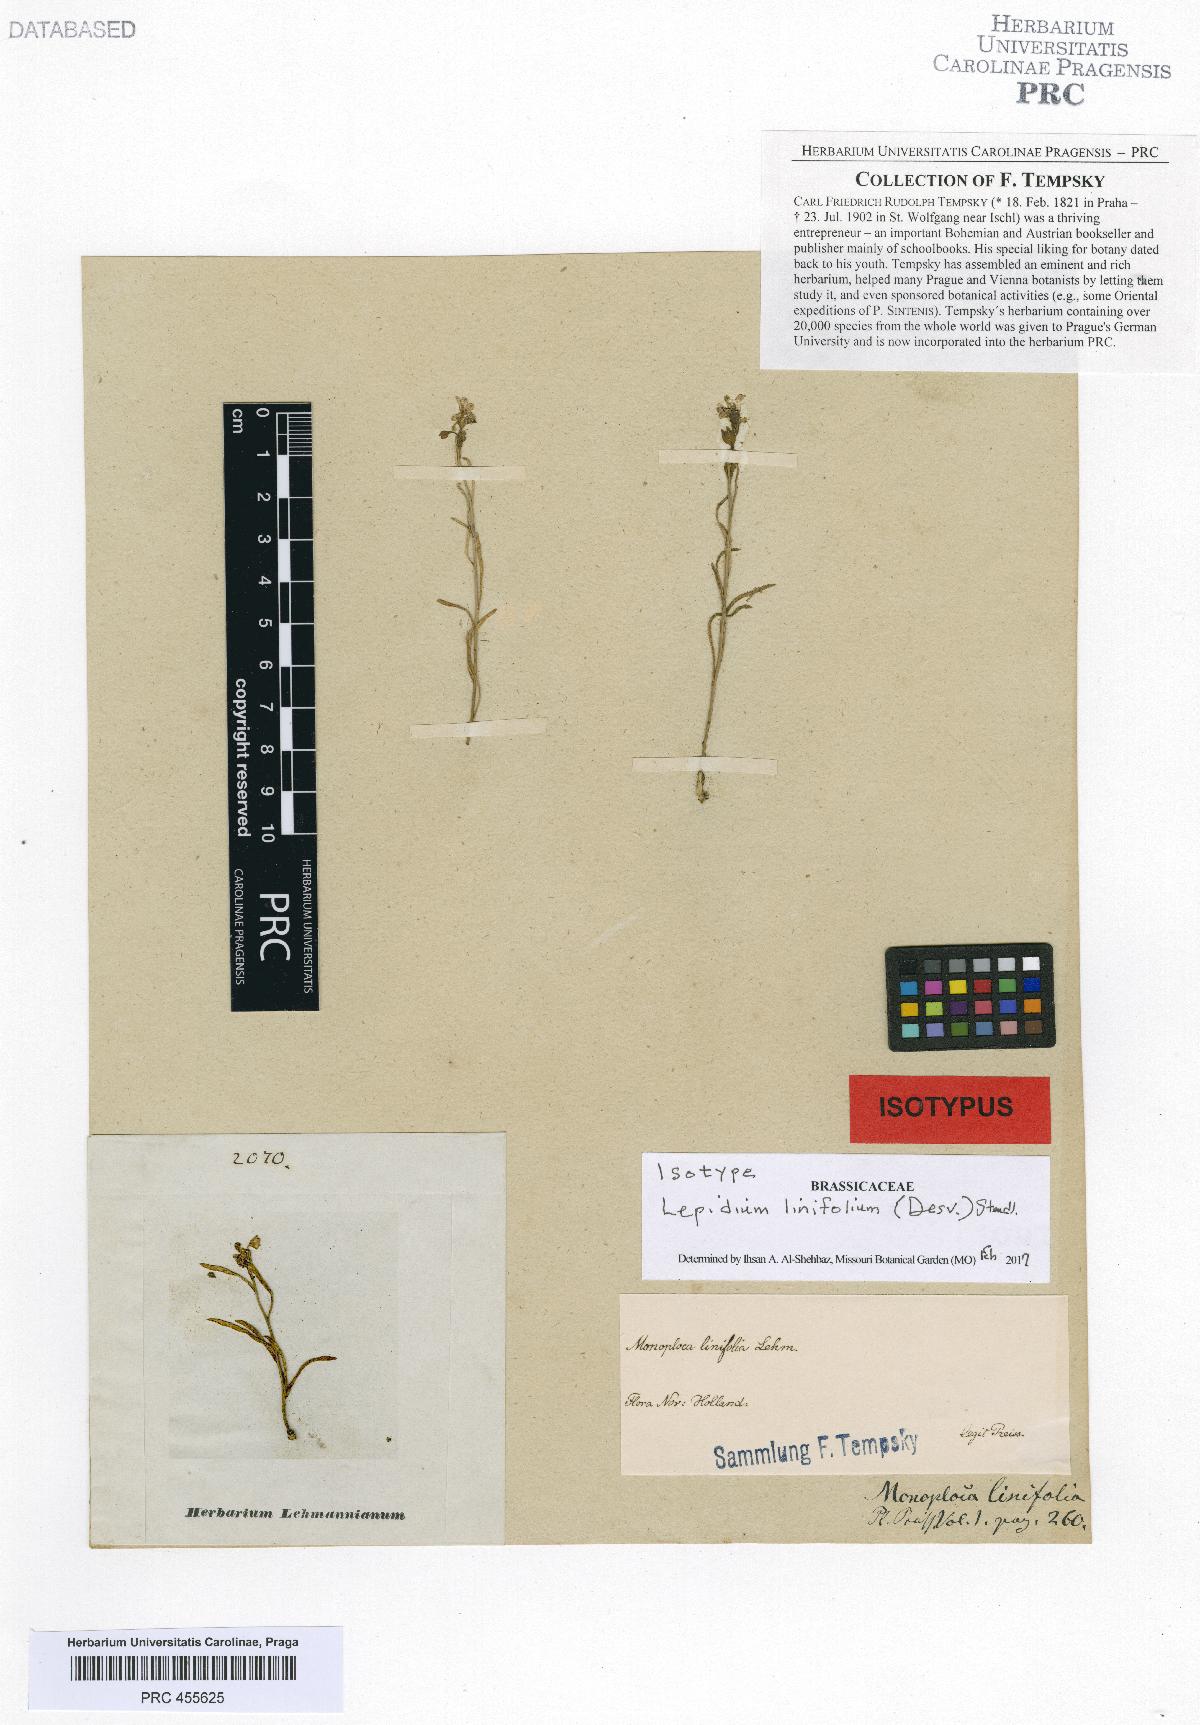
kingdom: Plantae
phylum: Tracheophyta
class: Magnoliopsida
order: Brassicales
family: Brassicaceae
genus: Lepidium
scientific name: Lepidium linifolium
